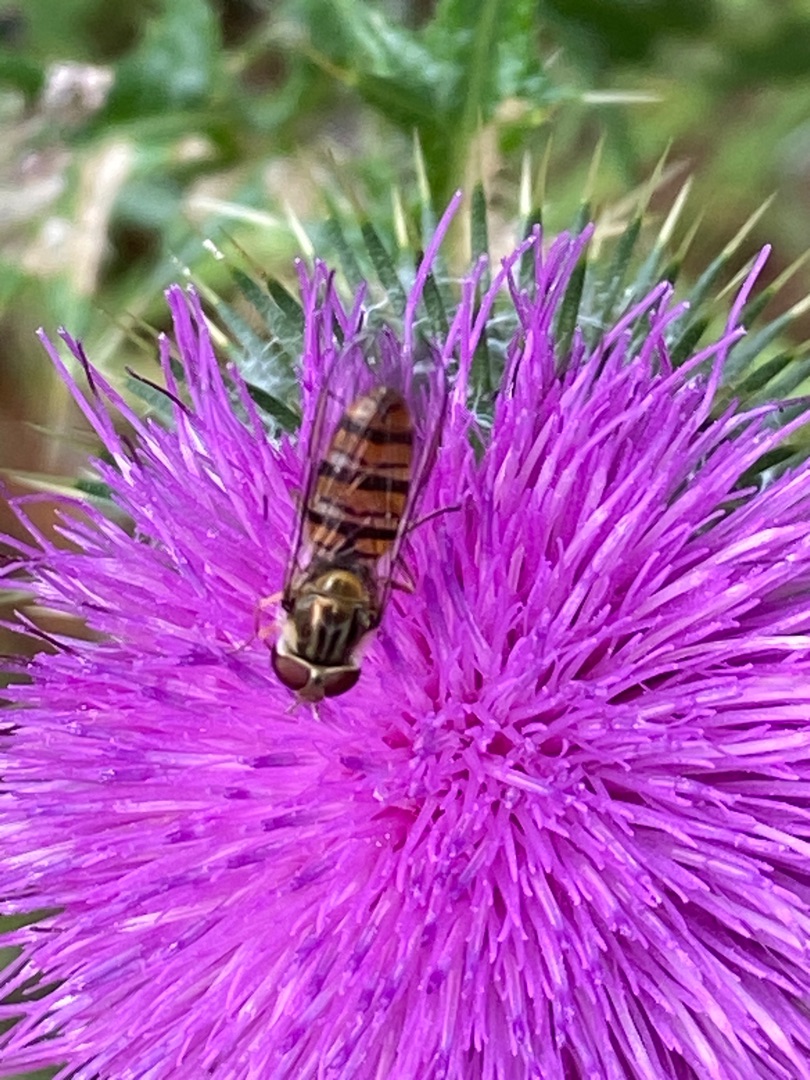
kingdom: Animalia
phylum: Arthropoda
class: Insecta
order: Diptera
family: Syrphidae
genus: Episyrphus
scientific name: Episyrphus balteatus
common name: Dobbeltbåndet svirreflue
